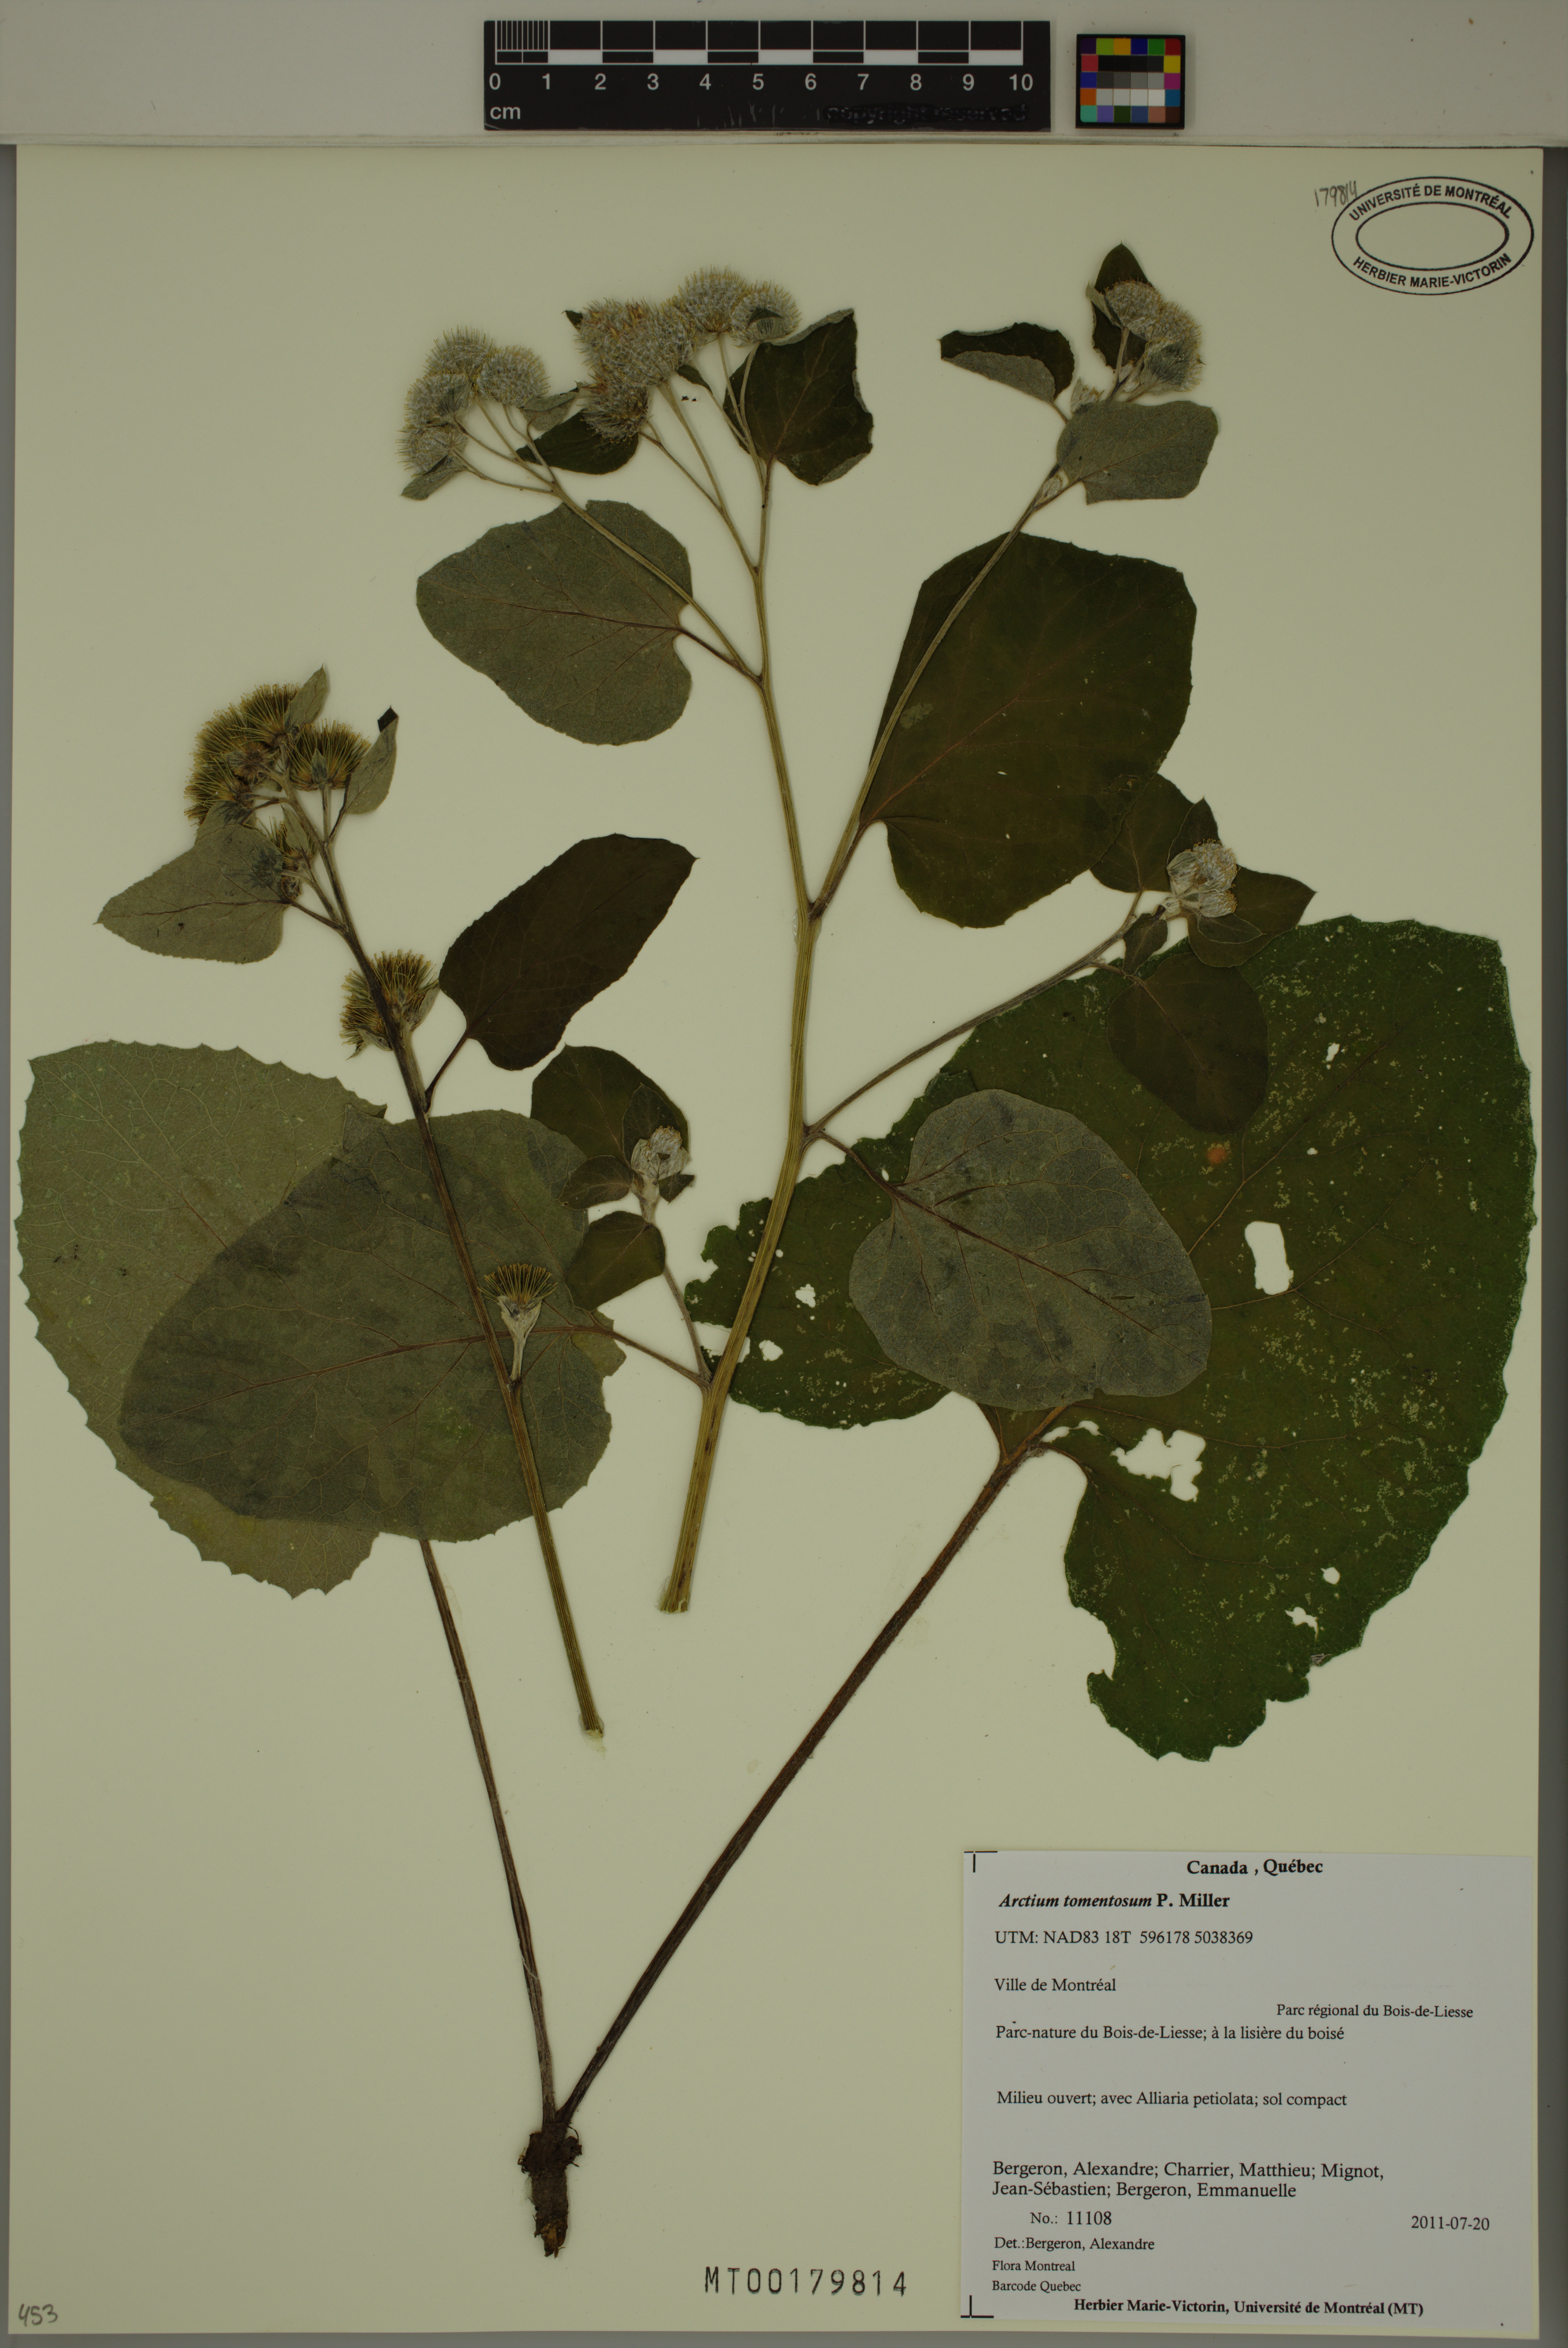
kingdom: Plantae
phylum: Tracheophyta
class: Magnoliopsida
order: Asterales
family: Asteraceae
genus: Arctium
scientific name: Arctium tomentosum
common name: Woolly burdock
